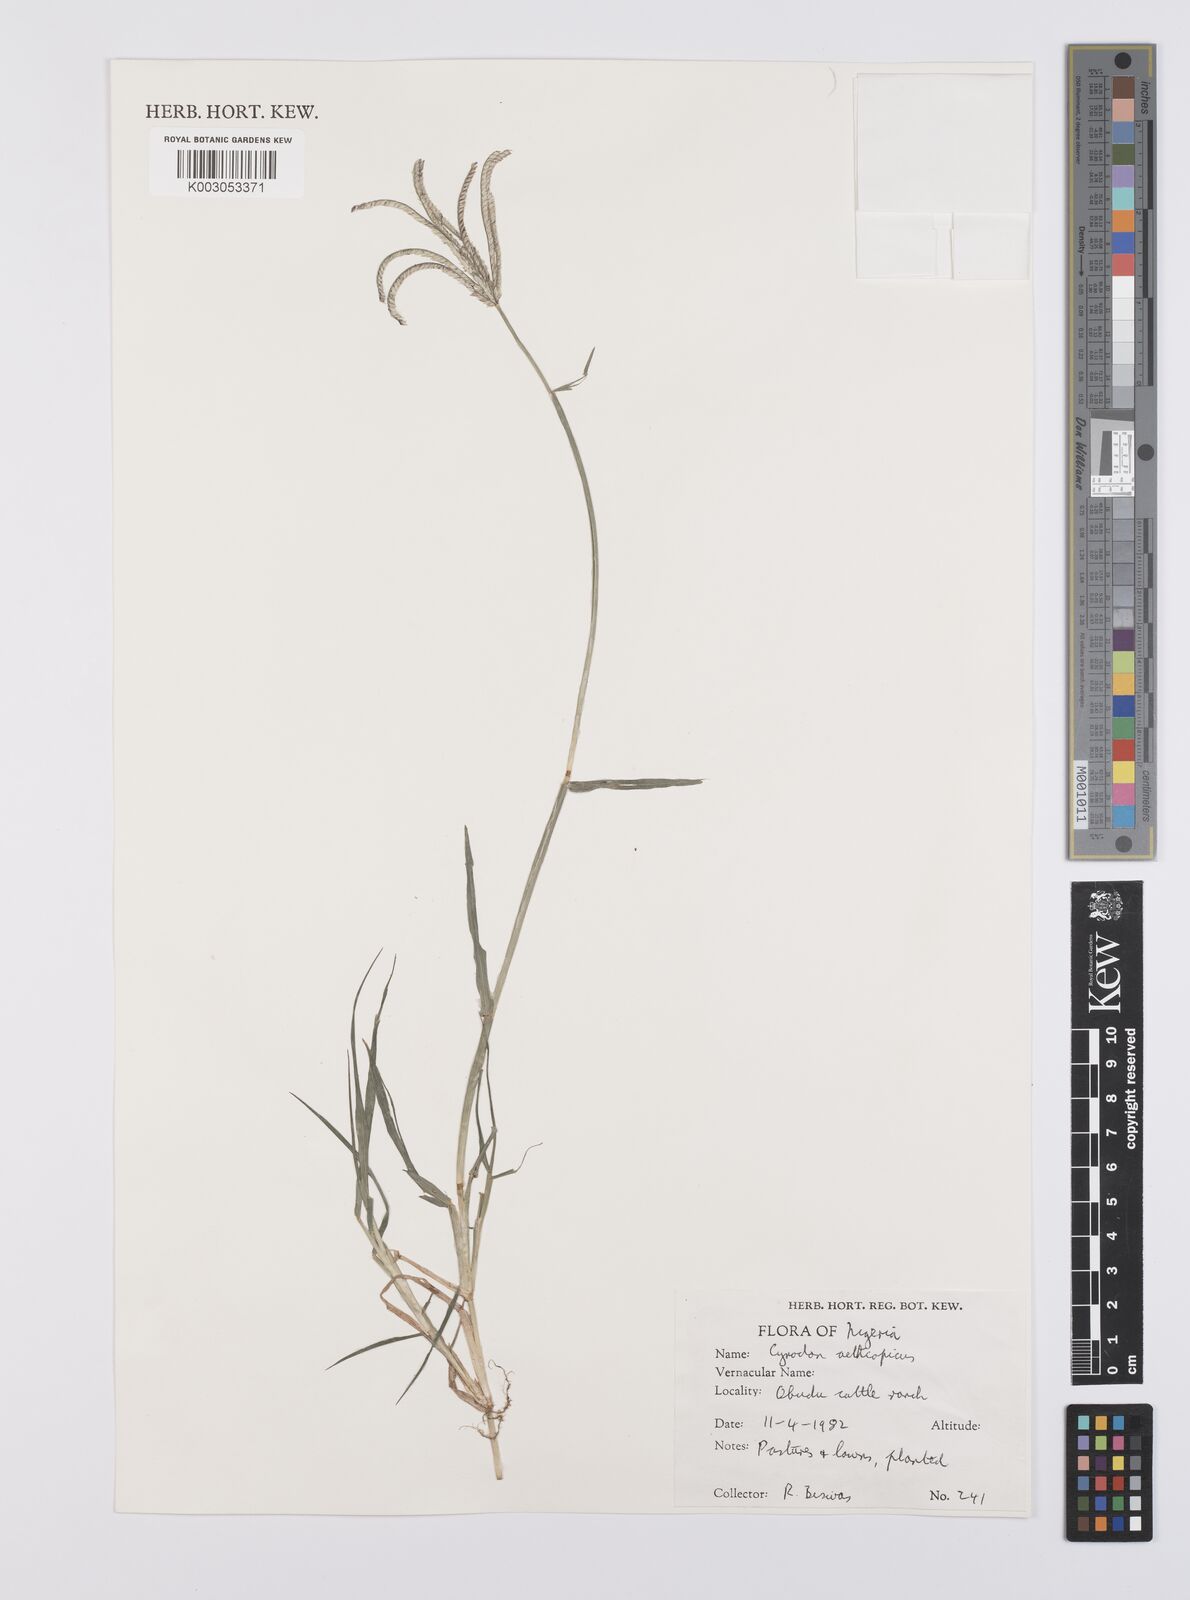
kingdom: Plantae
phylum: Tracheophyta
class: Liliopsida
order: Poales
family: Poaceae
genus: Cynodon
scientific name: Cynodon aethiopicus
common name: Ethiopian dogstooth grass
